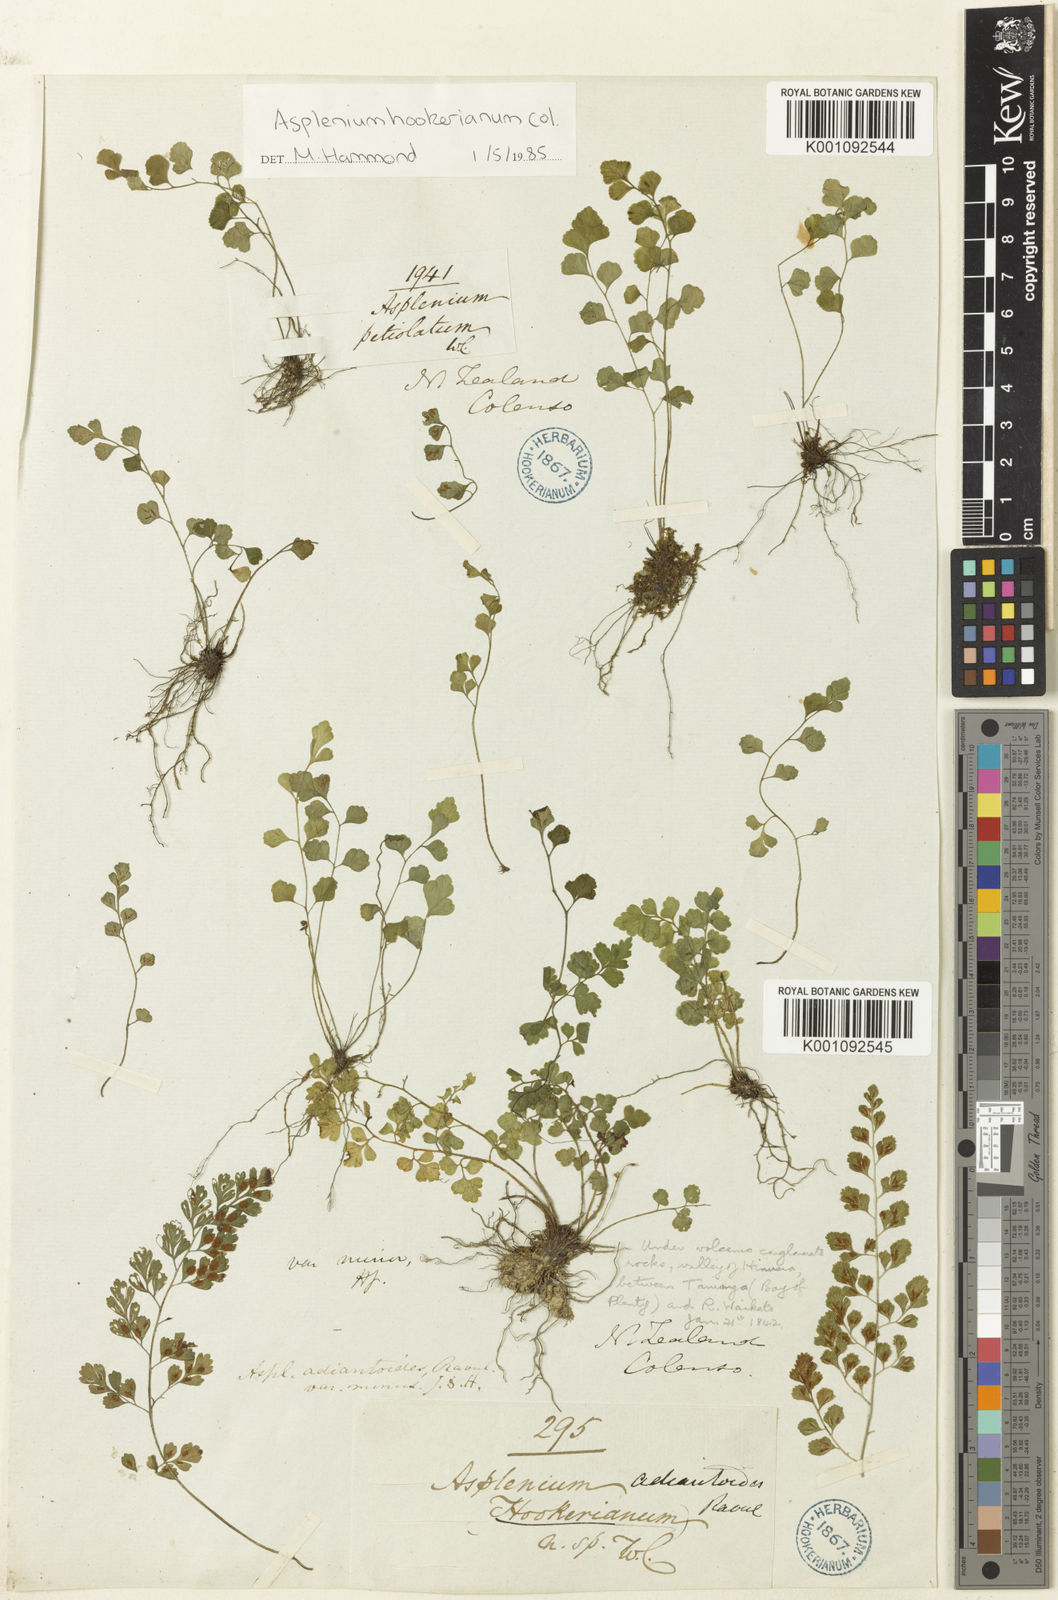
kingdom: Plantae
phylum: Tracheophyta
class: Polypodiopsida
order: Polypodiales
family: Aspleniaceae
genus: Asplenium
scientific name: Asplenium hookerianum
